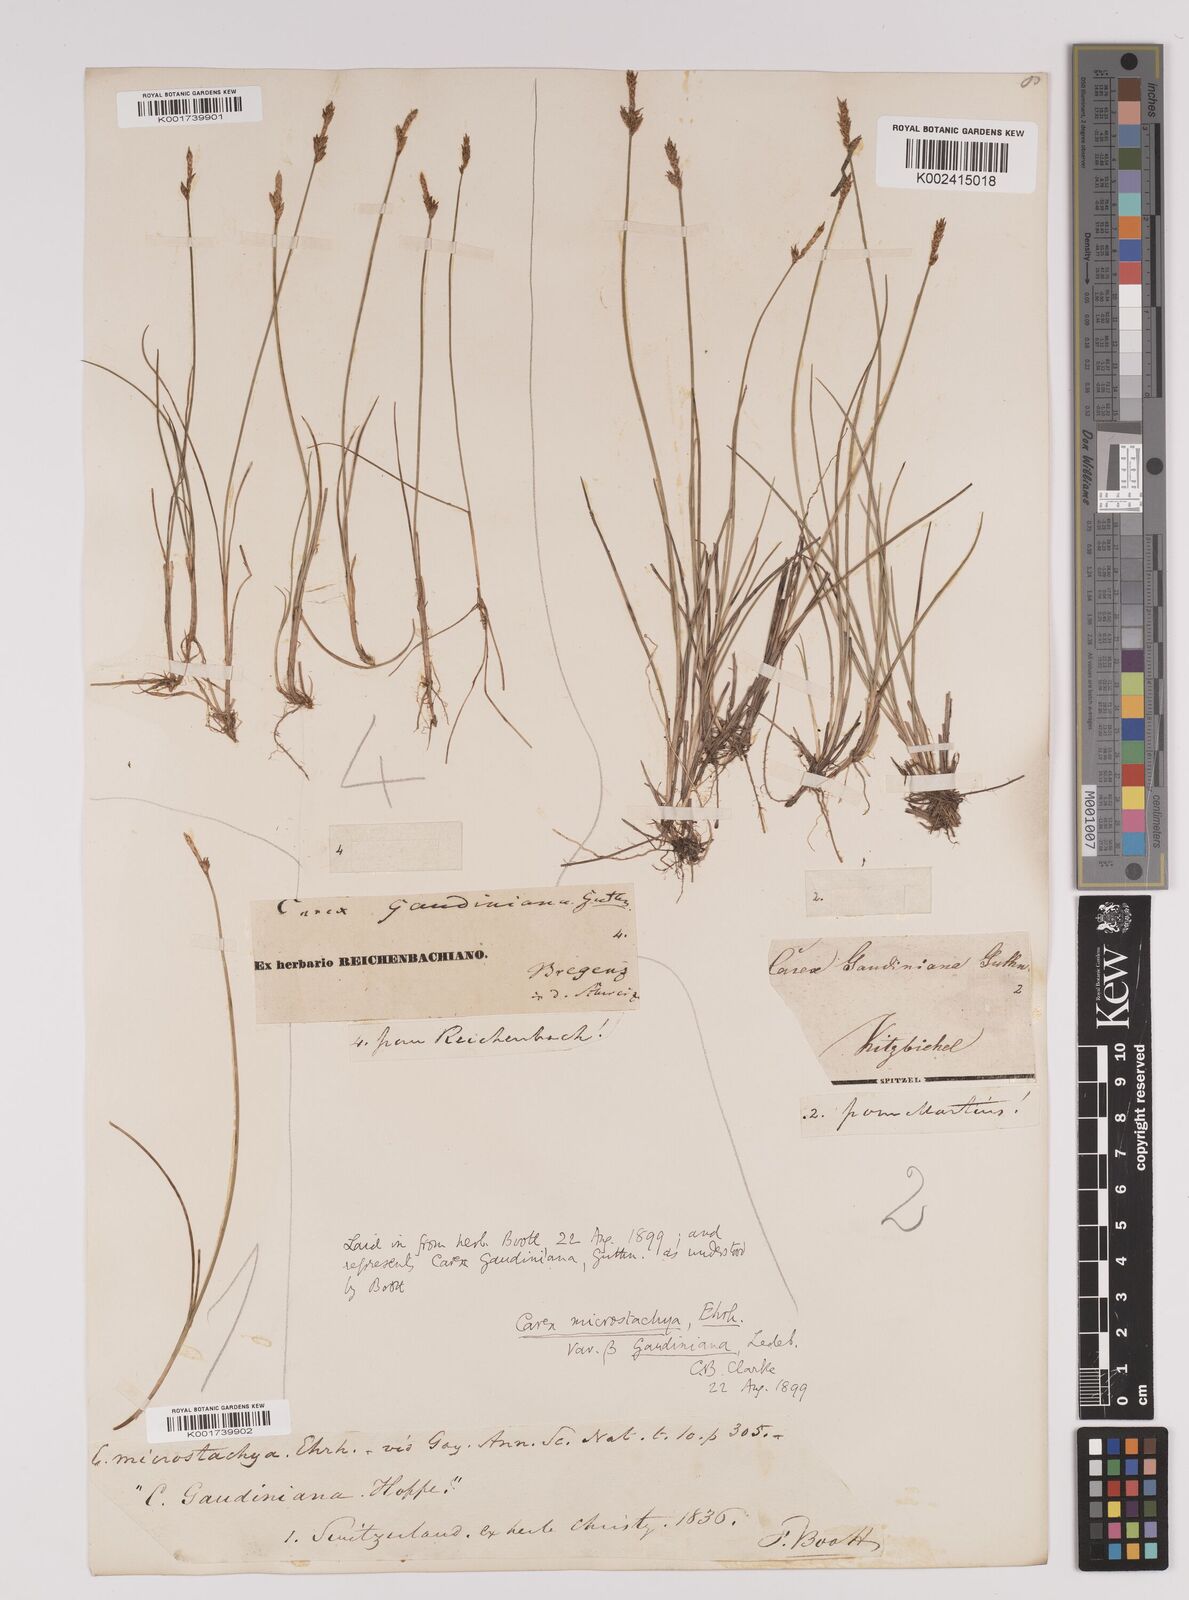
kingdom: Plantae
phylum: Tracheophyta
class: Liliopsida
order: Poales
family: Cyperaceae
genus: Carex
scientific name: Carex dioica
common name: Dioecious sedge
